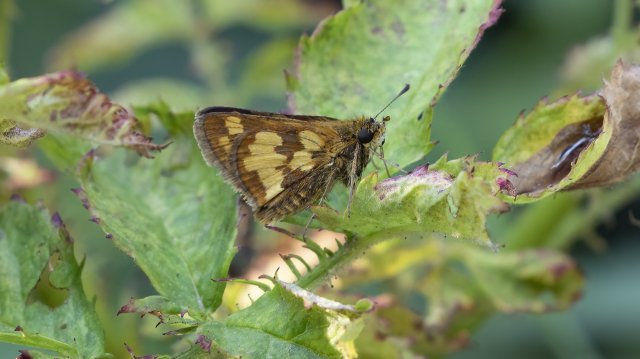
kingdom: Animalia
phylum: Arthropoda
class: Insecta
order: Lepidoptera
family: Hesperiidae
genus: Polites
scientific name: Polites coras
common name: Peck's Skipper
